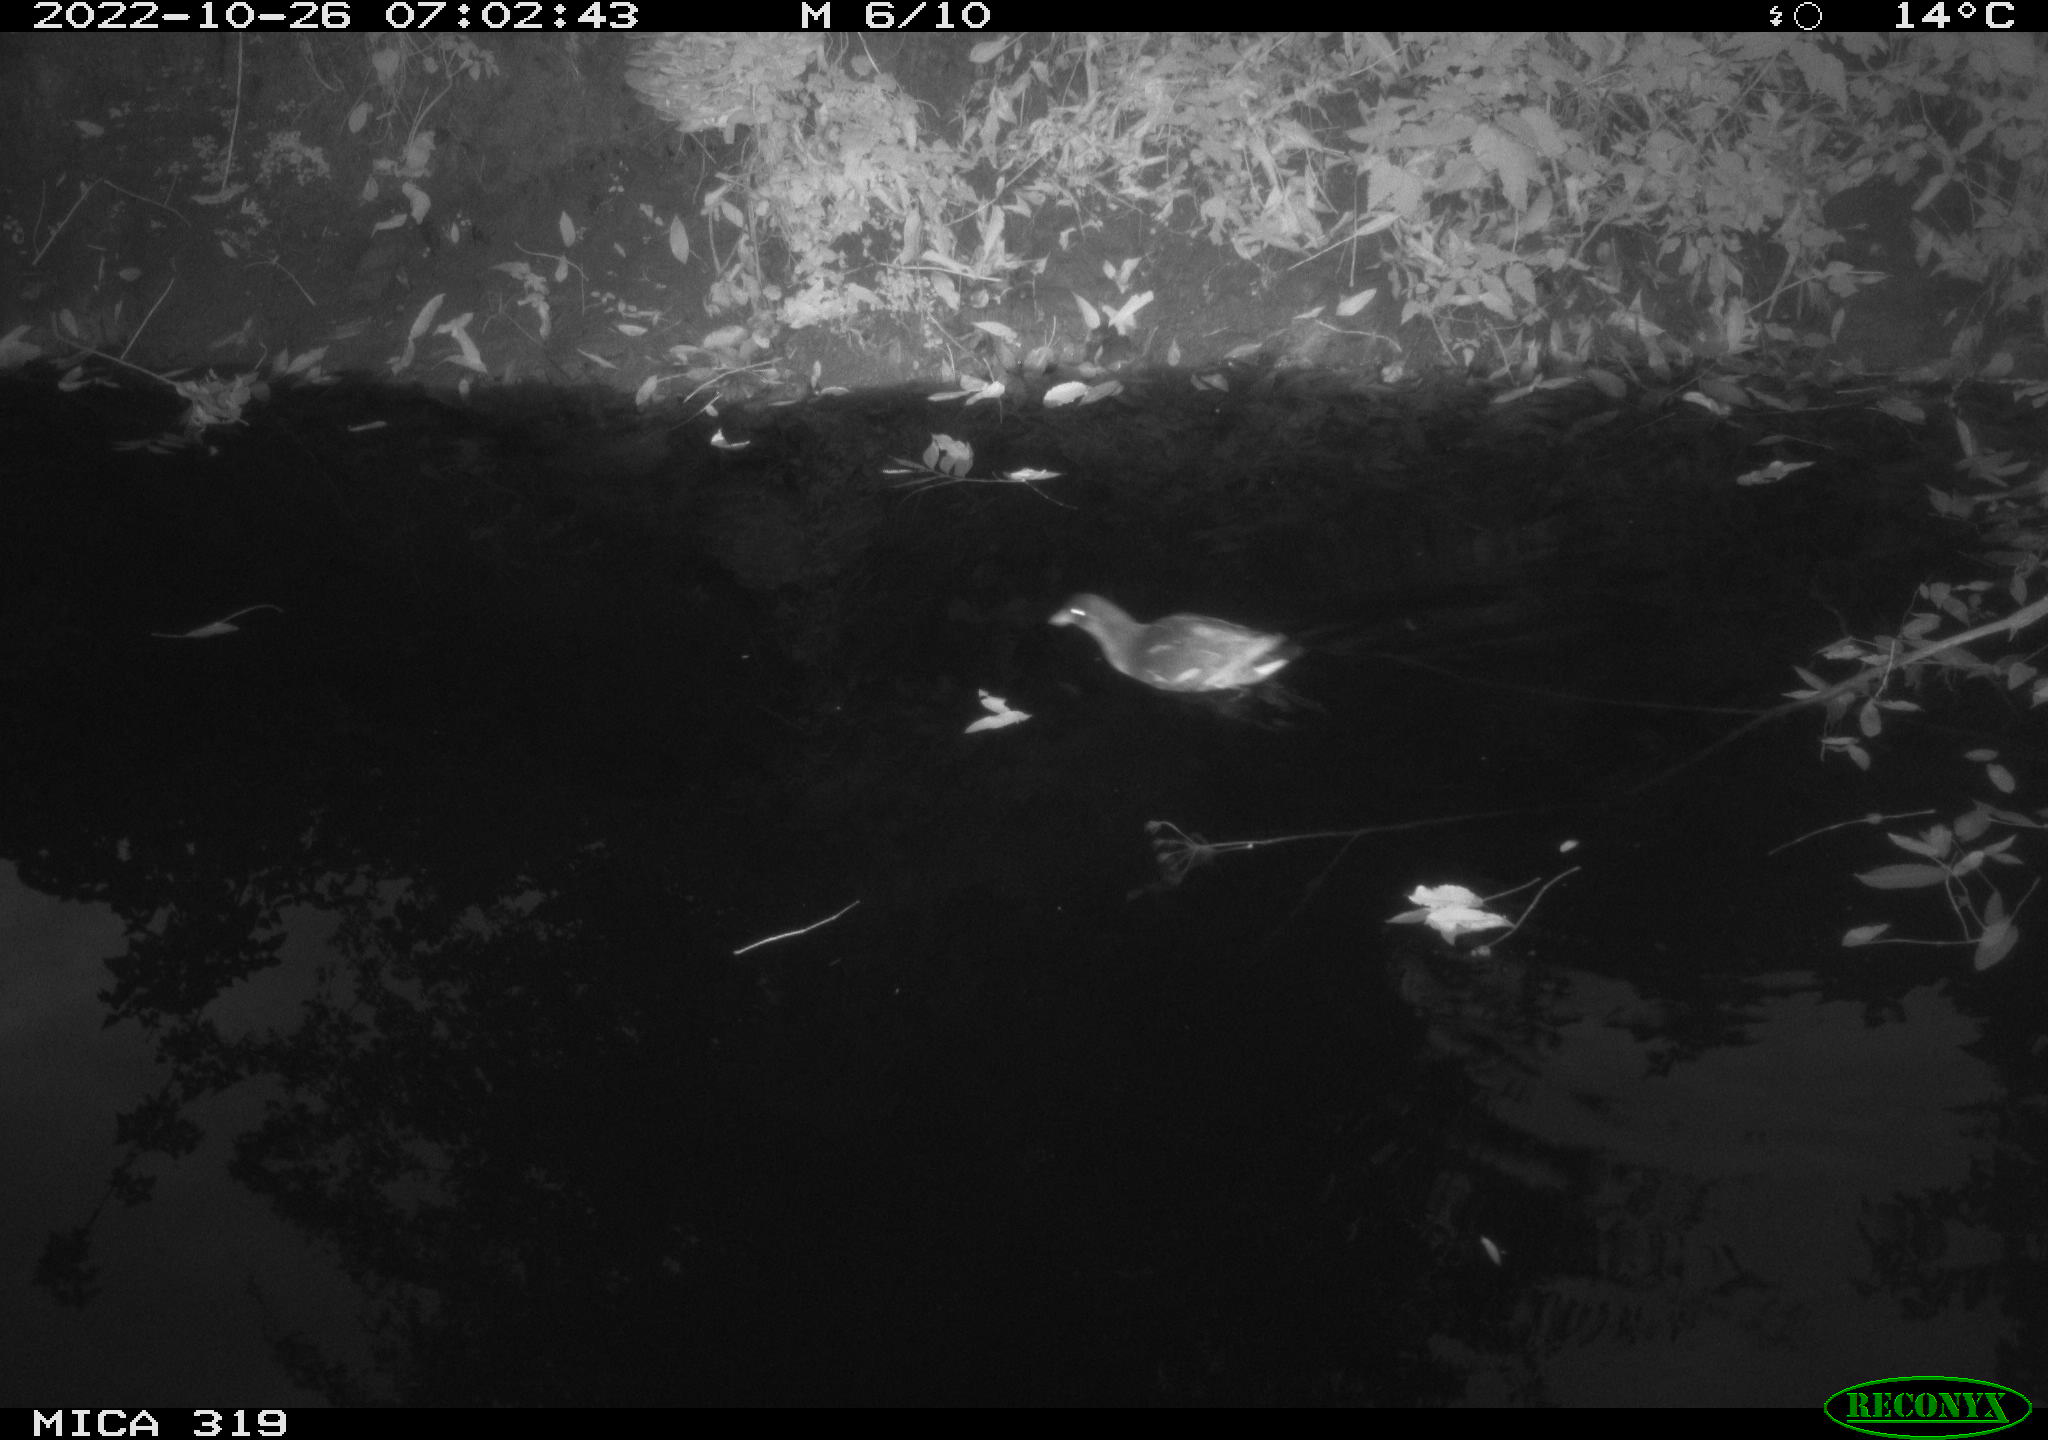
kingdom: Animalia
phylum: Chordata
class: Aves
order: Gruiformes
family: Rallidae
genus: Gallinula
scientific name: Gallinula chloropus
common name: Common moorhen
